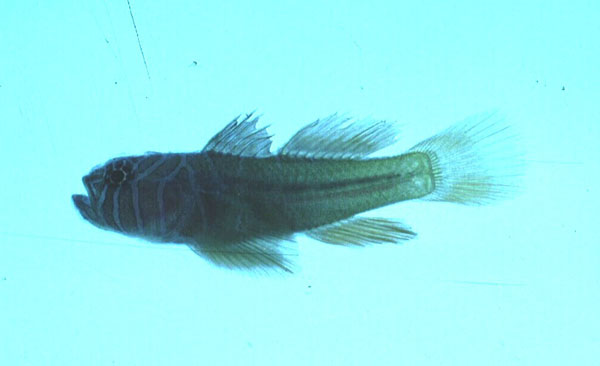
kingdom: Animalia
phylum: Chordata
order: Perciformes
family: Gobiidae
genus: Priolepis
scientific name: Priolepis compita
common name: Crossroads goby
